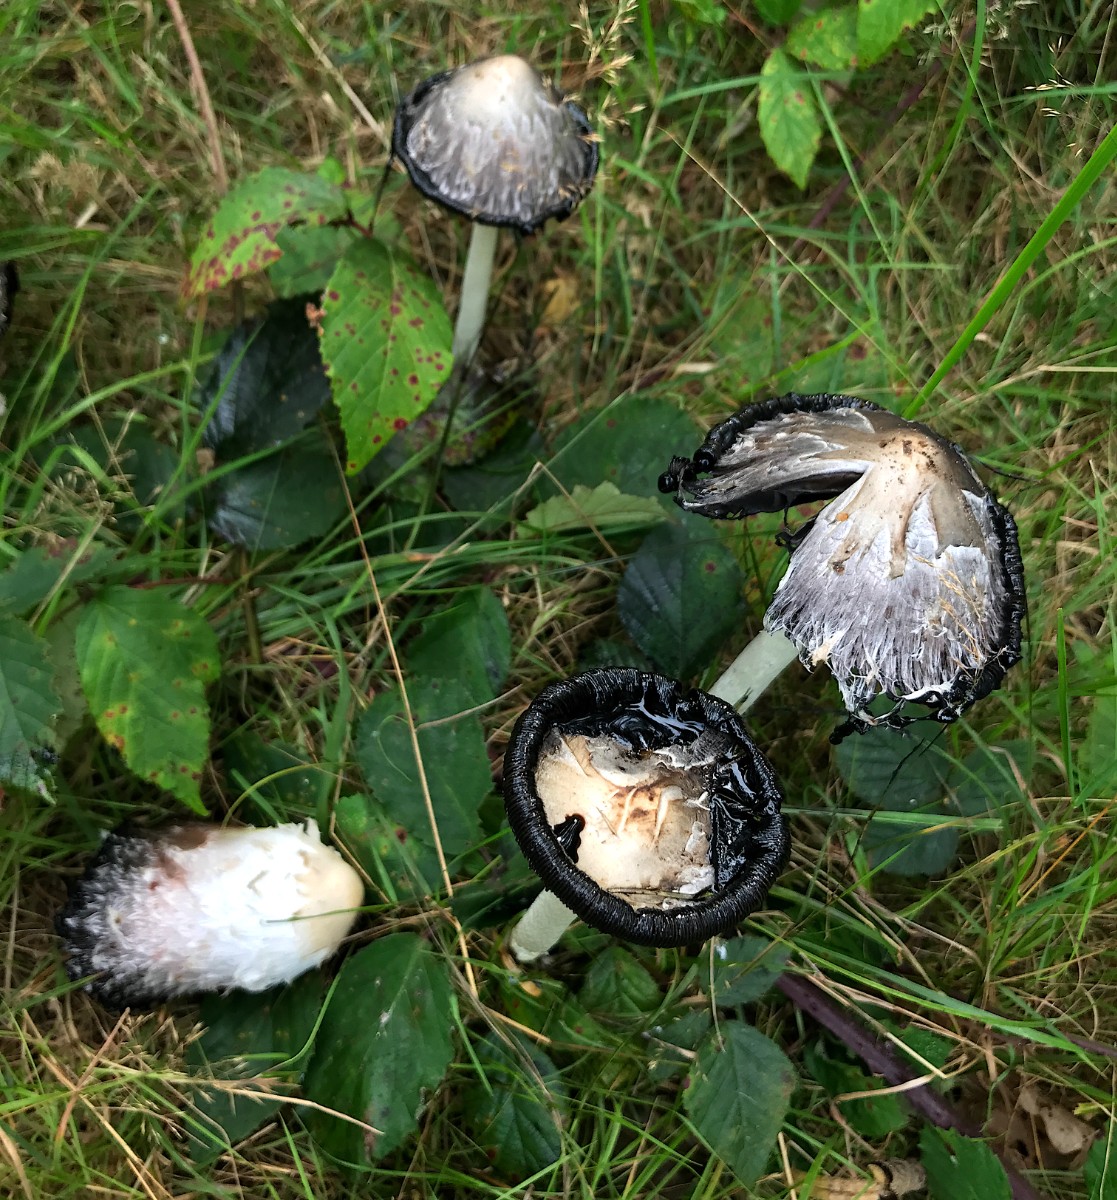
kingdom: Fungi
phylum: Basidiomycota
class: Agaricomycetes
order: Agaricales
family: Agaricaceae
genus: Coprinus
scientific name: Coprinus comatus
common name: stor parykhat
